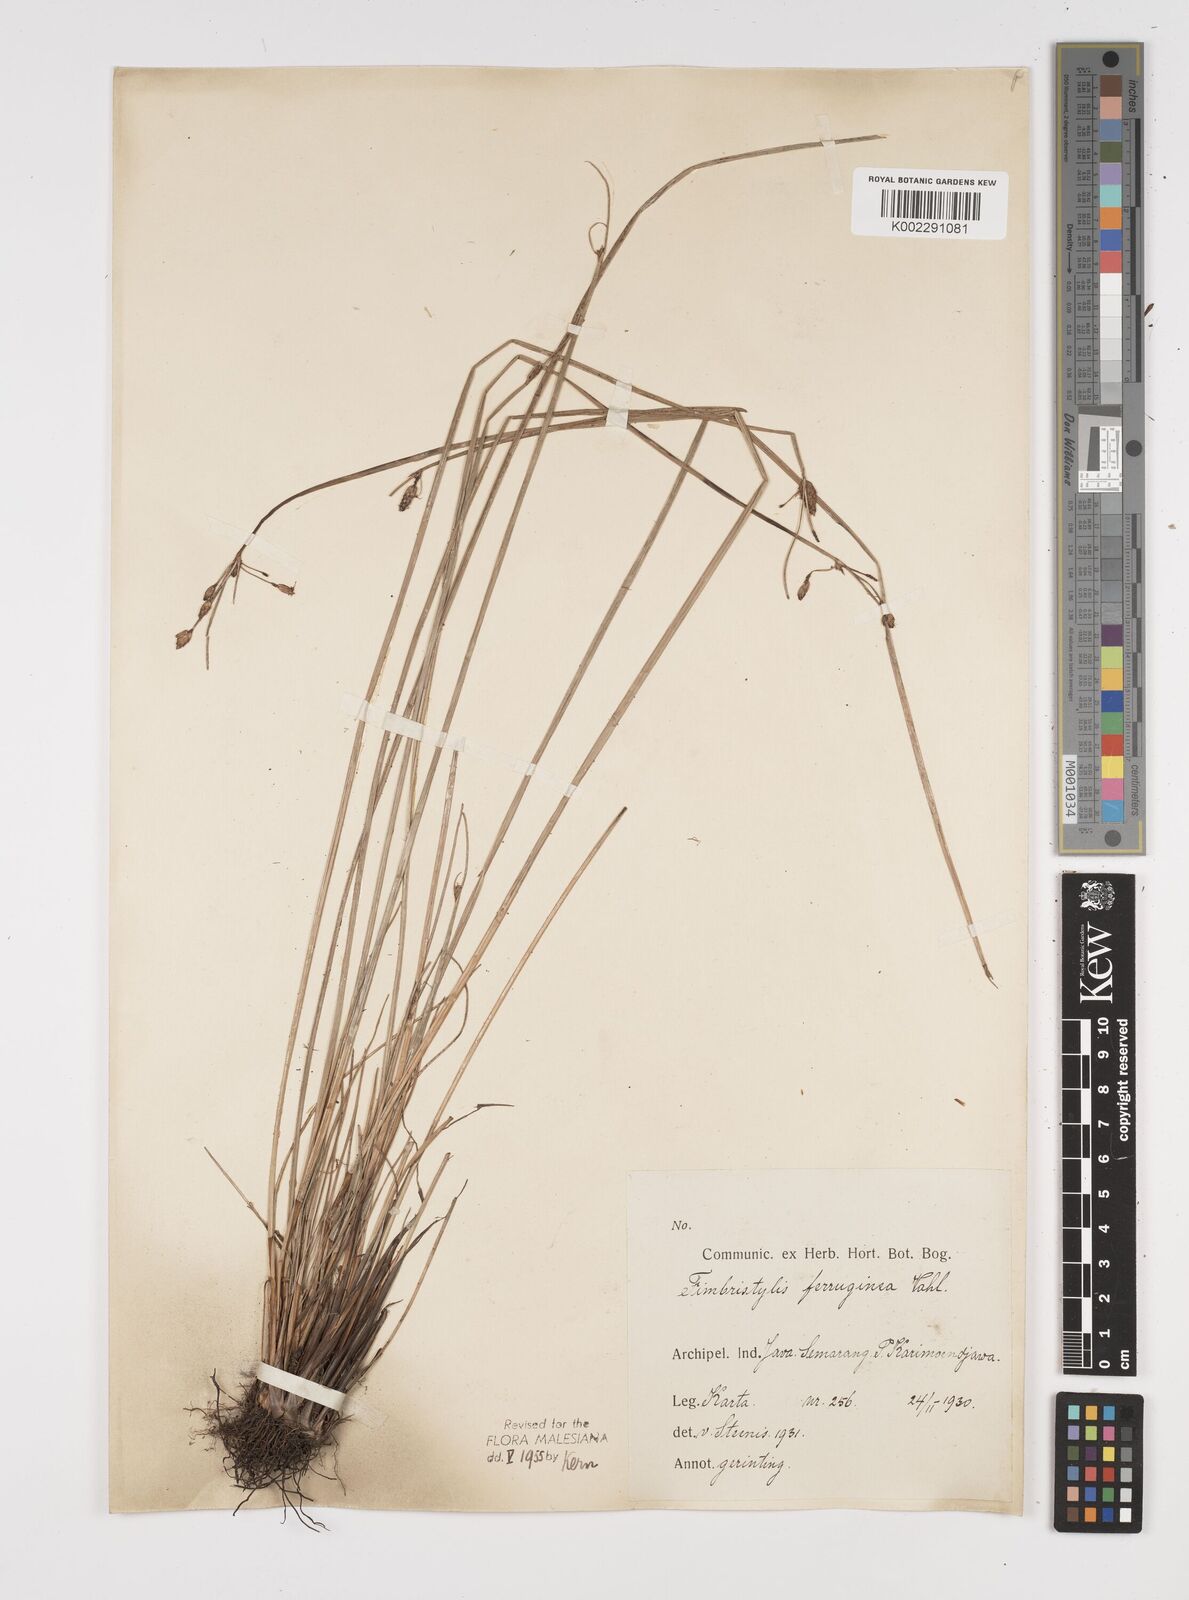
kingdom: Plantae
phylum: Tracheophyta
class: Liliopsida
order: Poales
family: Cyperaceae
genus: Fimbristylis
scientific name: Fimbristylis ferruginea
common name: West indian fimbry
